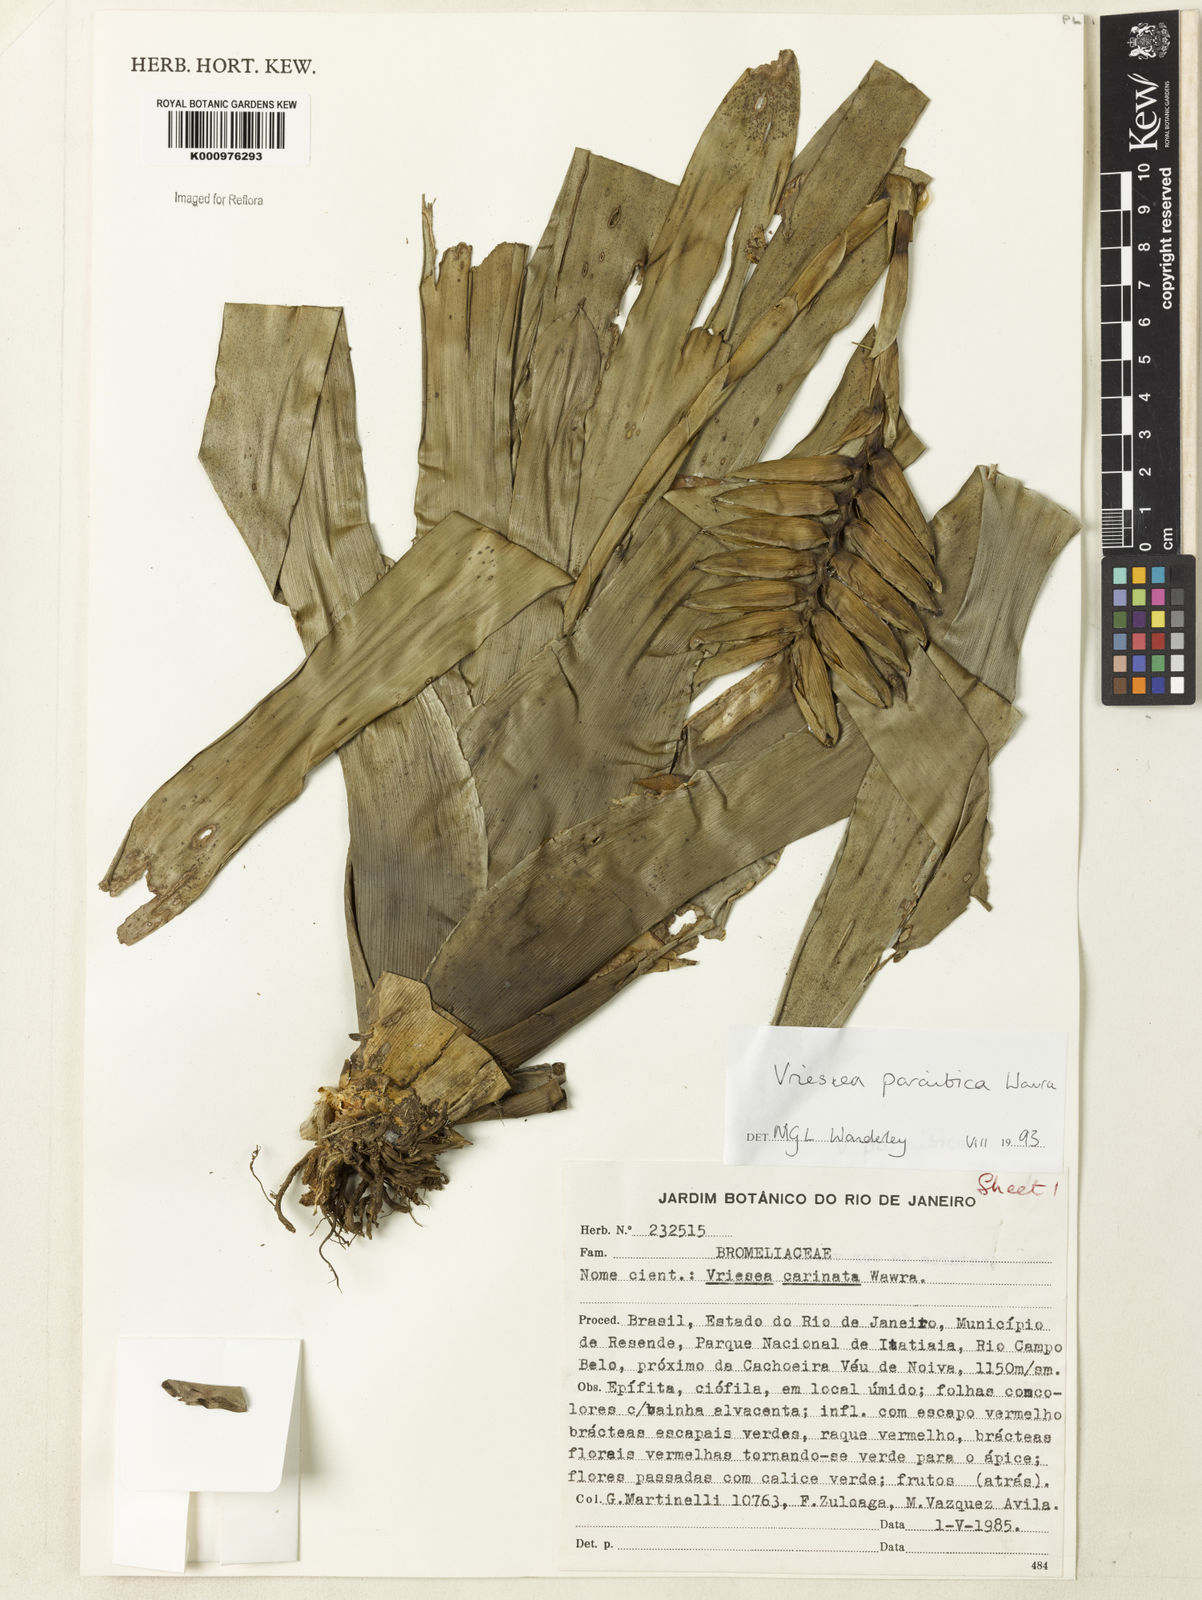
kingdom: Plantae
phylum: Tracheophyta
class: Liliopsida
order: Poales
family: Bromeliaceae
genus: Vriesea
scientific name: Vriesea paraibica
